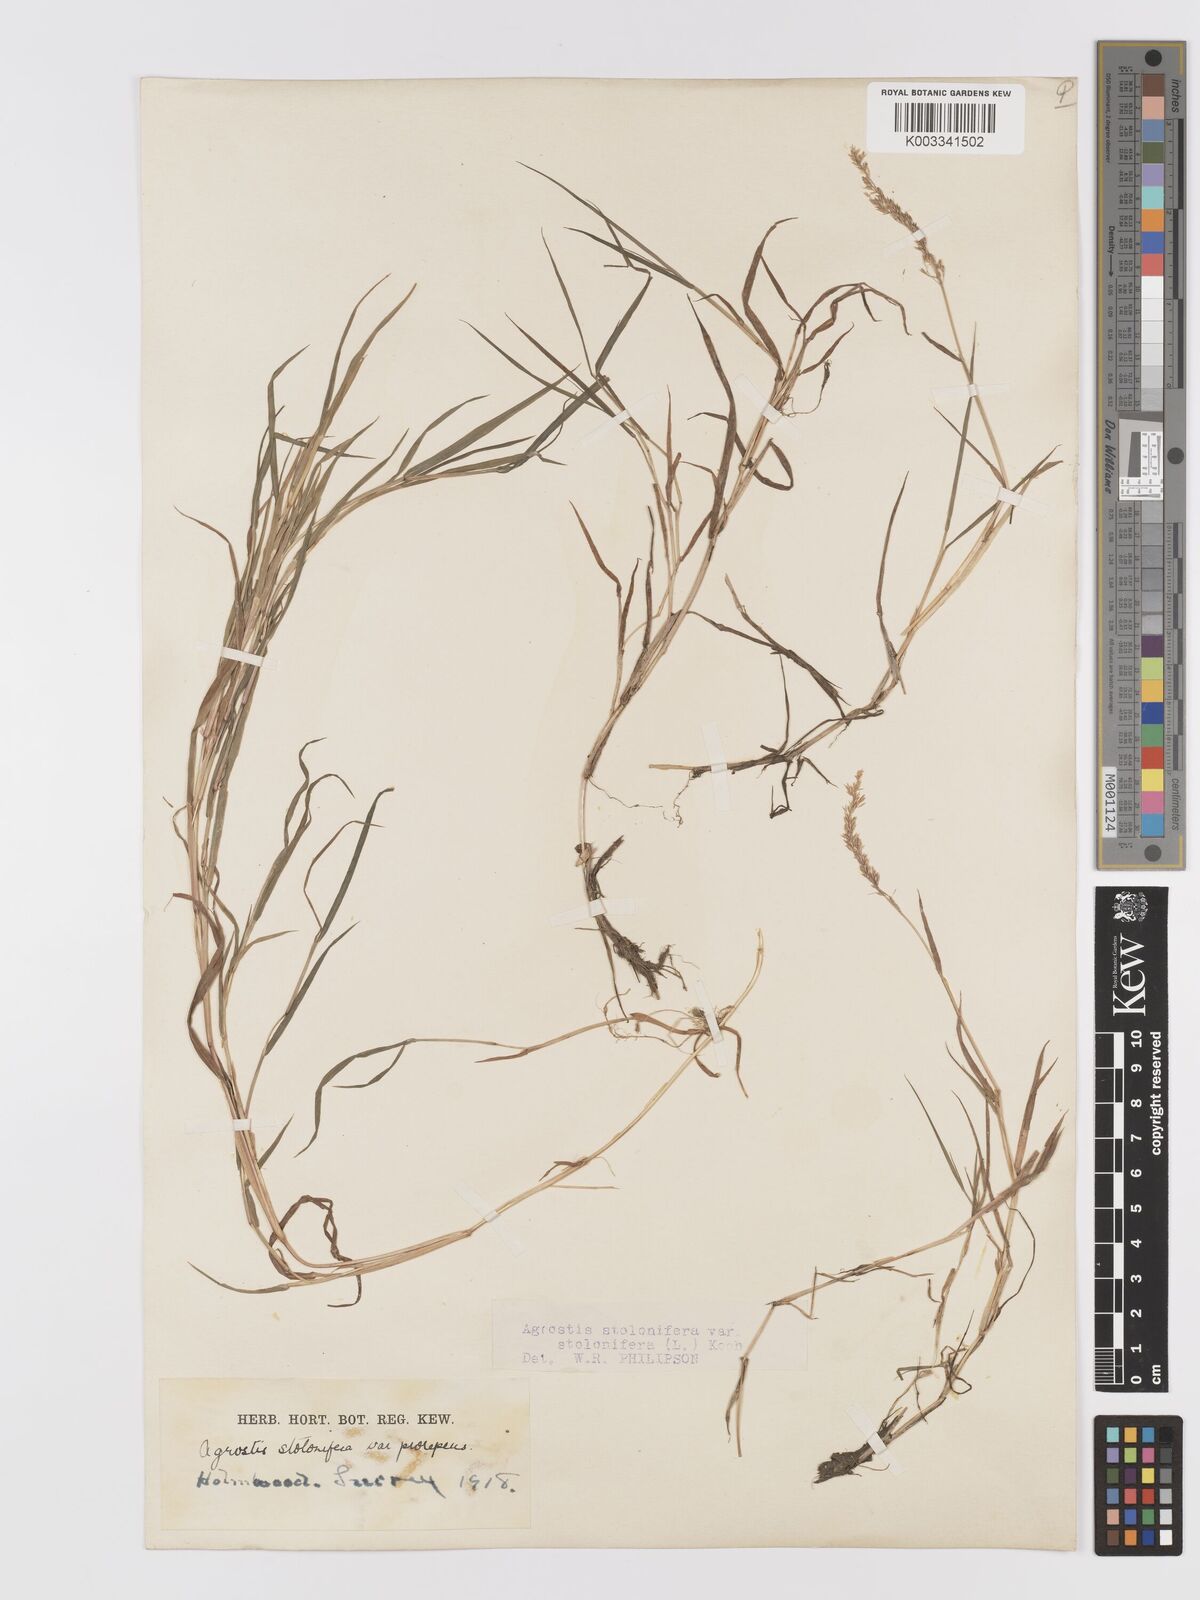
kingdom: Plantae
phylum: Tracheophyta
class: Liliopsida
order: Poales
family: Poaceae
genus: Agrostis
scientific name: Agrostis stolonifera
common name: Creeping bentgrass
